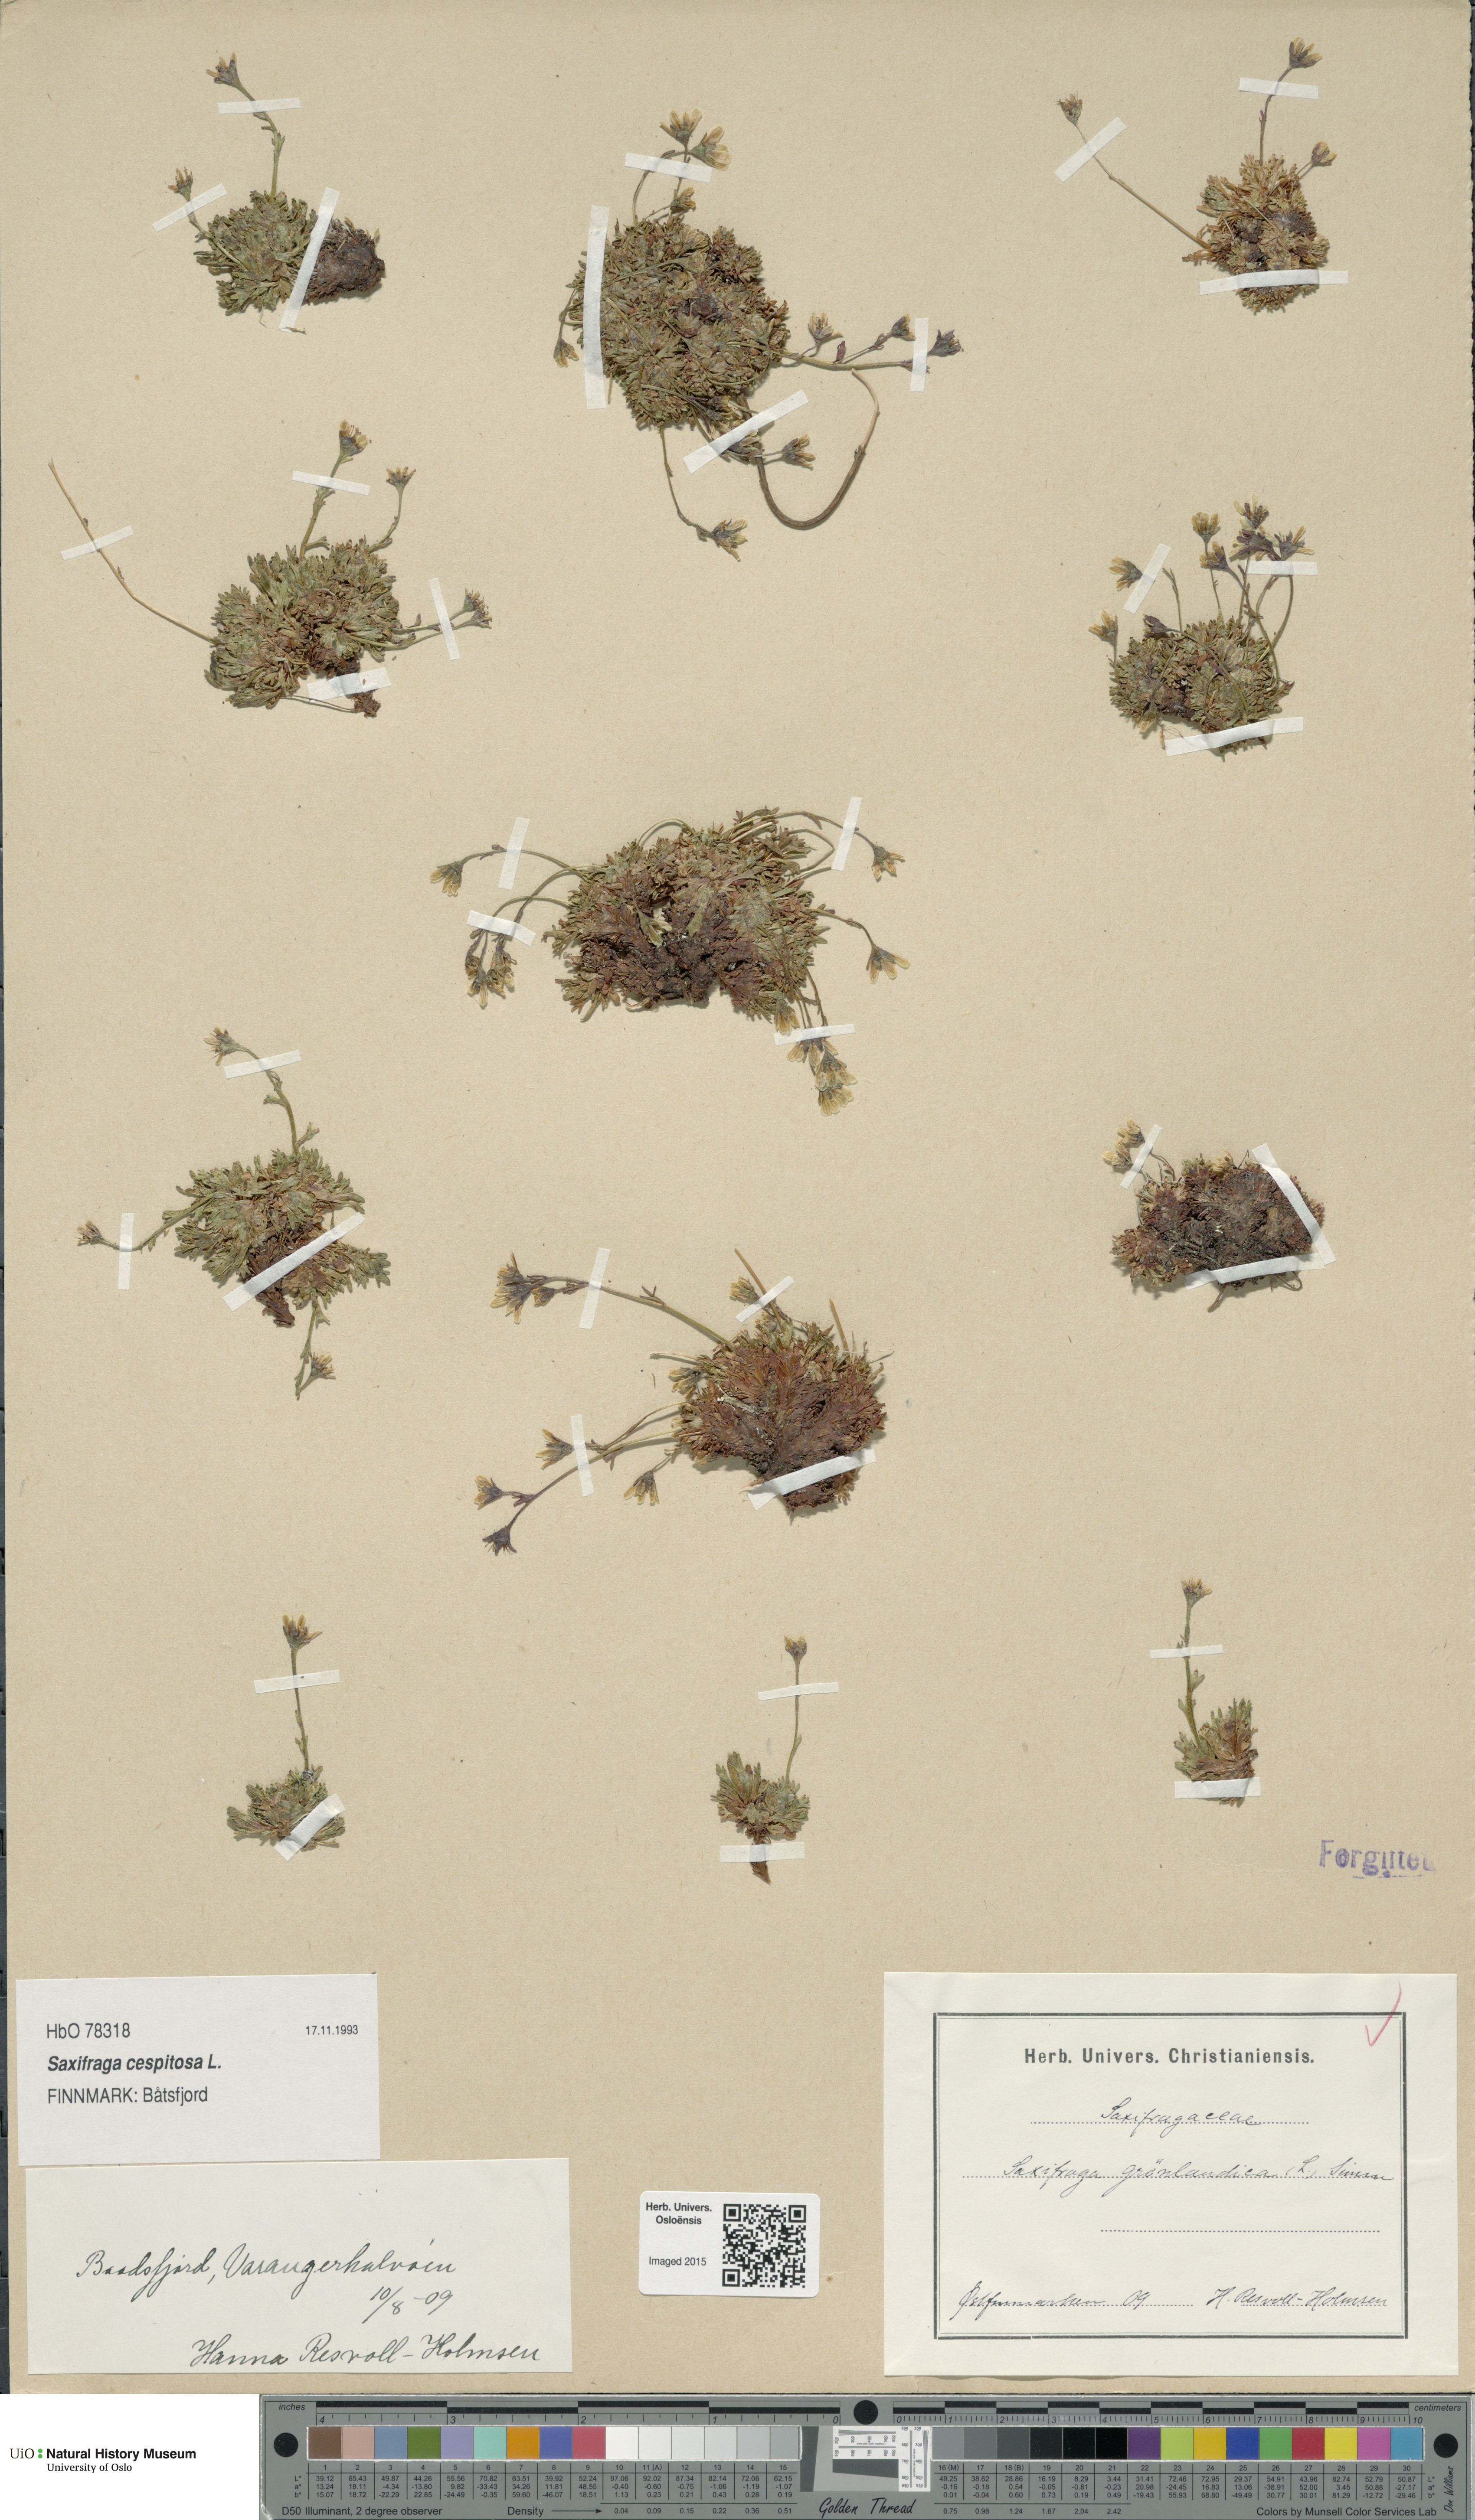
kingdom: Plantae
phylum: Tracheophyta
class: Magnoliopsida
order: Saxifragales
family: Saxifragaceae
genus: Saxifraga
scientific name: Saxifraga cespitosa
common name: Tufted saxifrage
